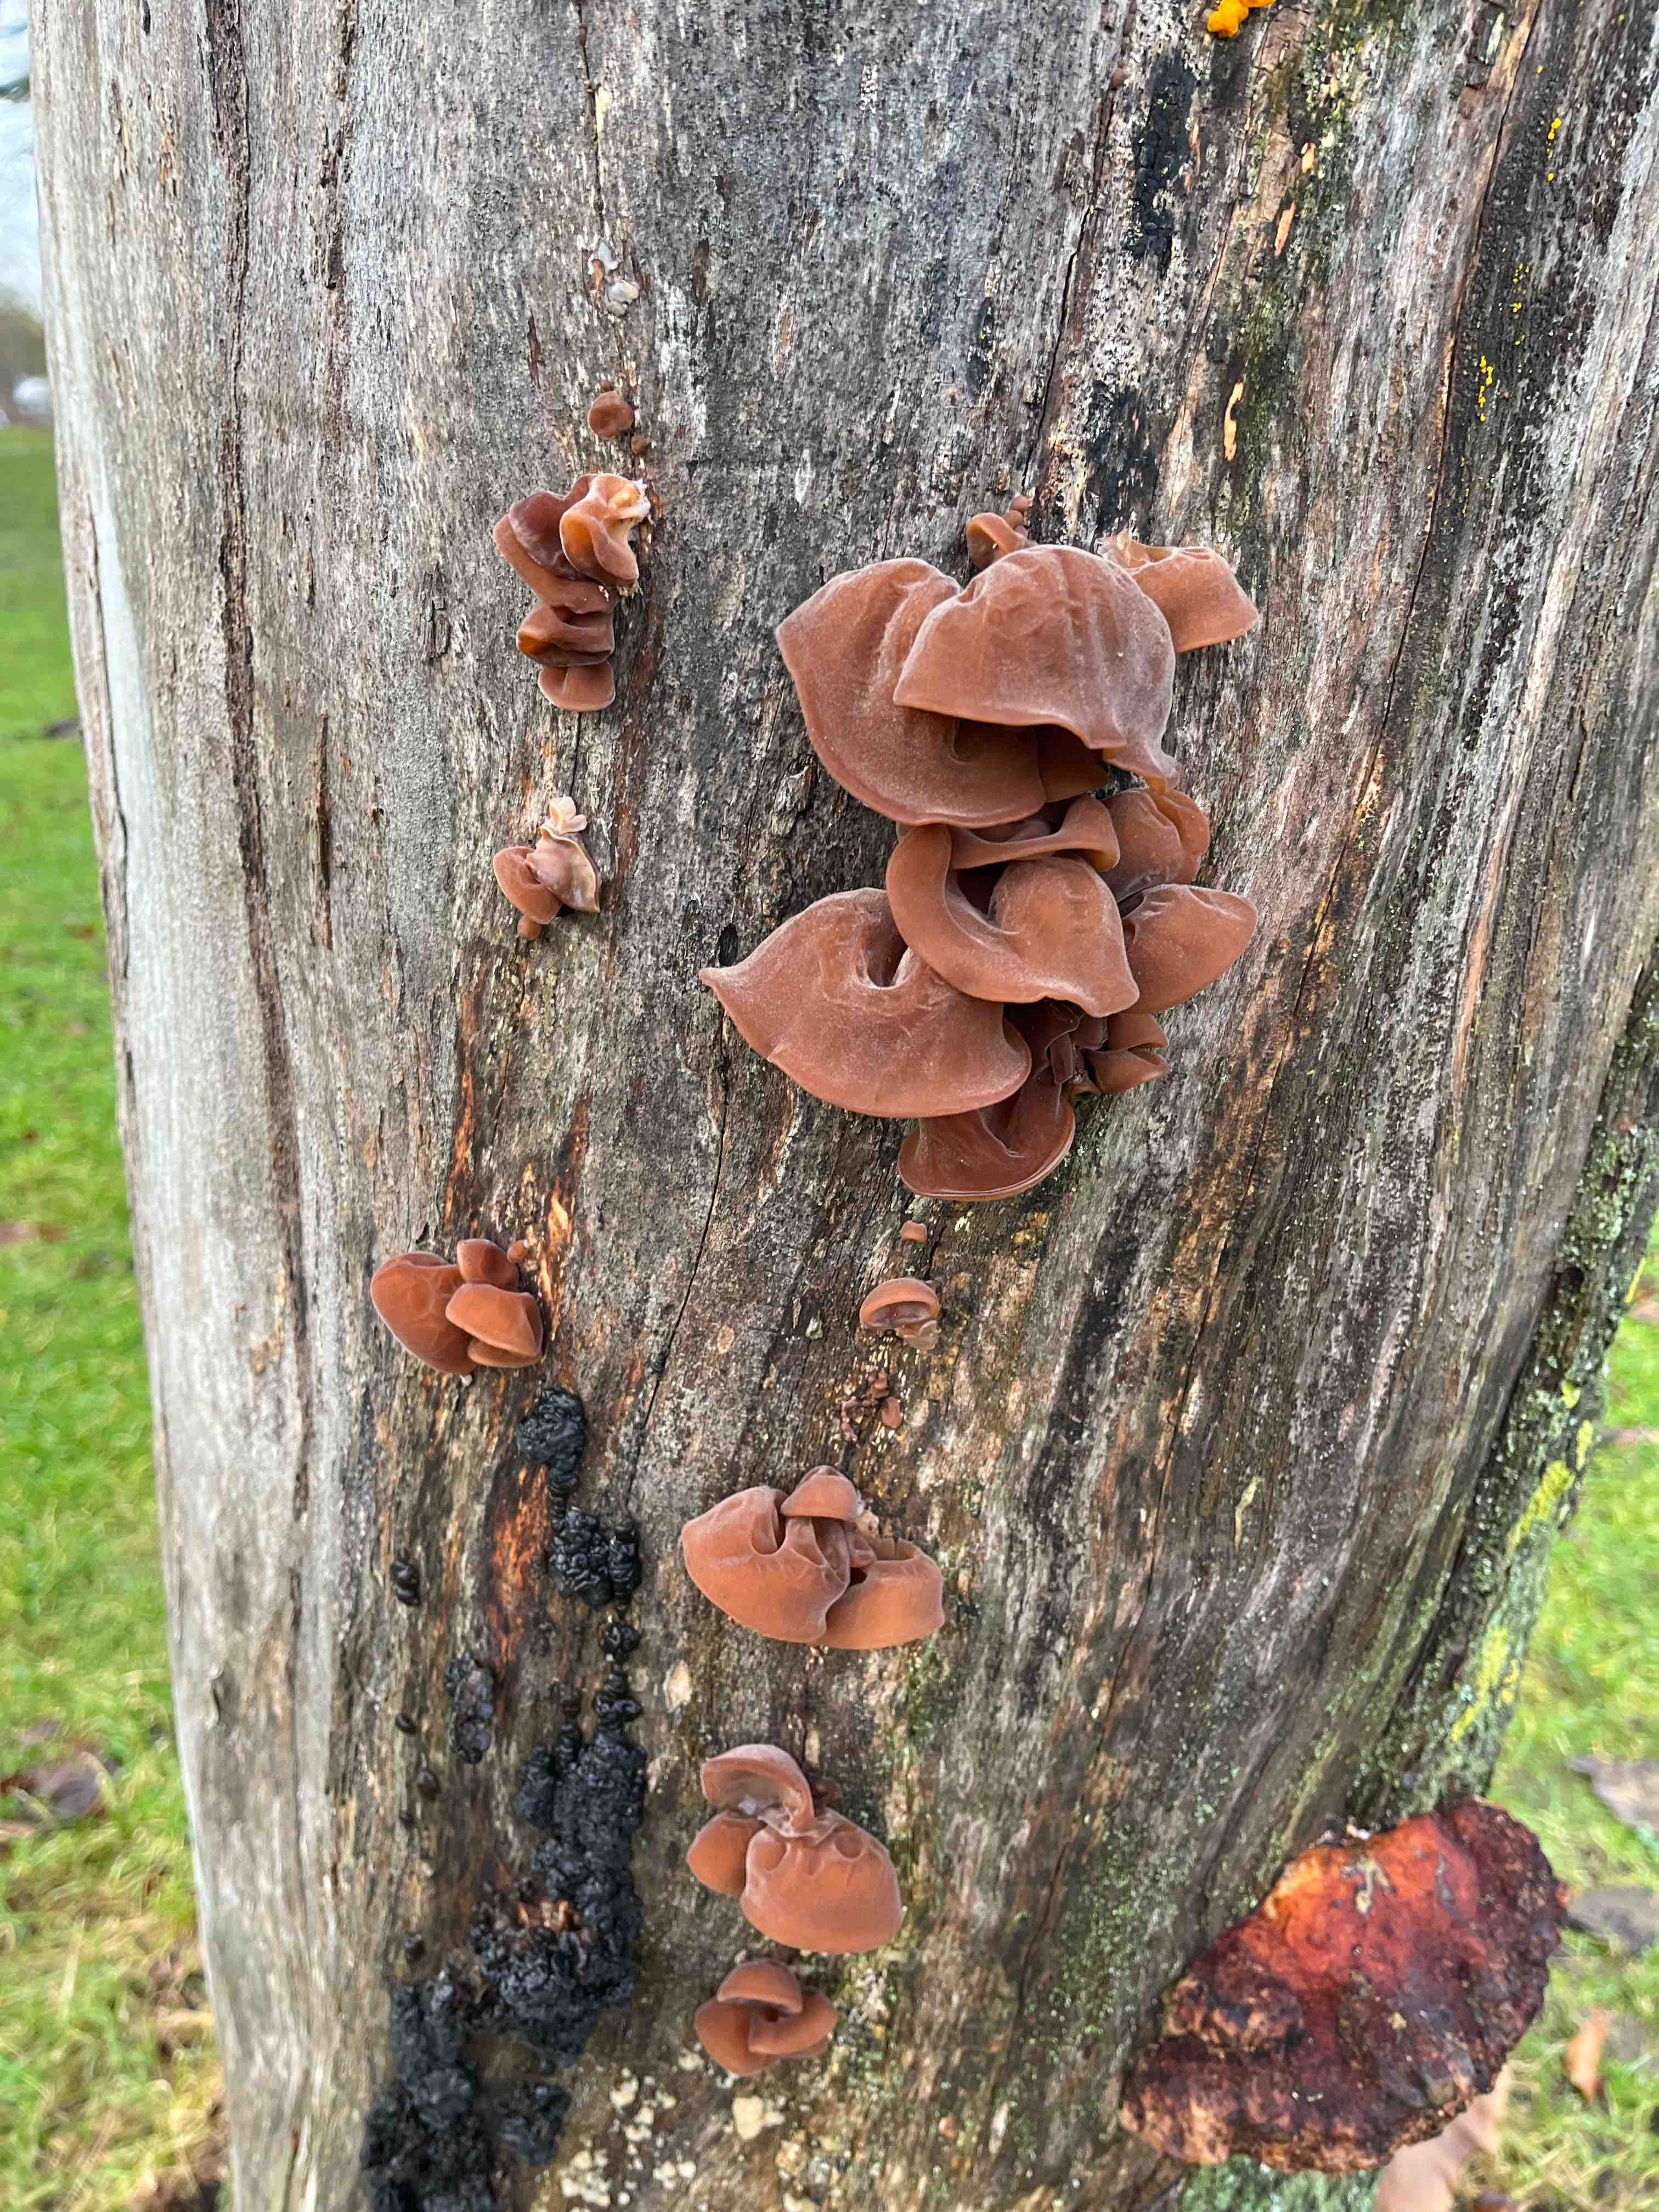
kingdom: Fungi
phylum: Basidiomycota
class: Agaricomycetes
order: Auriculariales
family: Auriculariaceae
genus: Auricularia
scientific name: Auricularia auricula-judae
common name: almindelig judasøre
